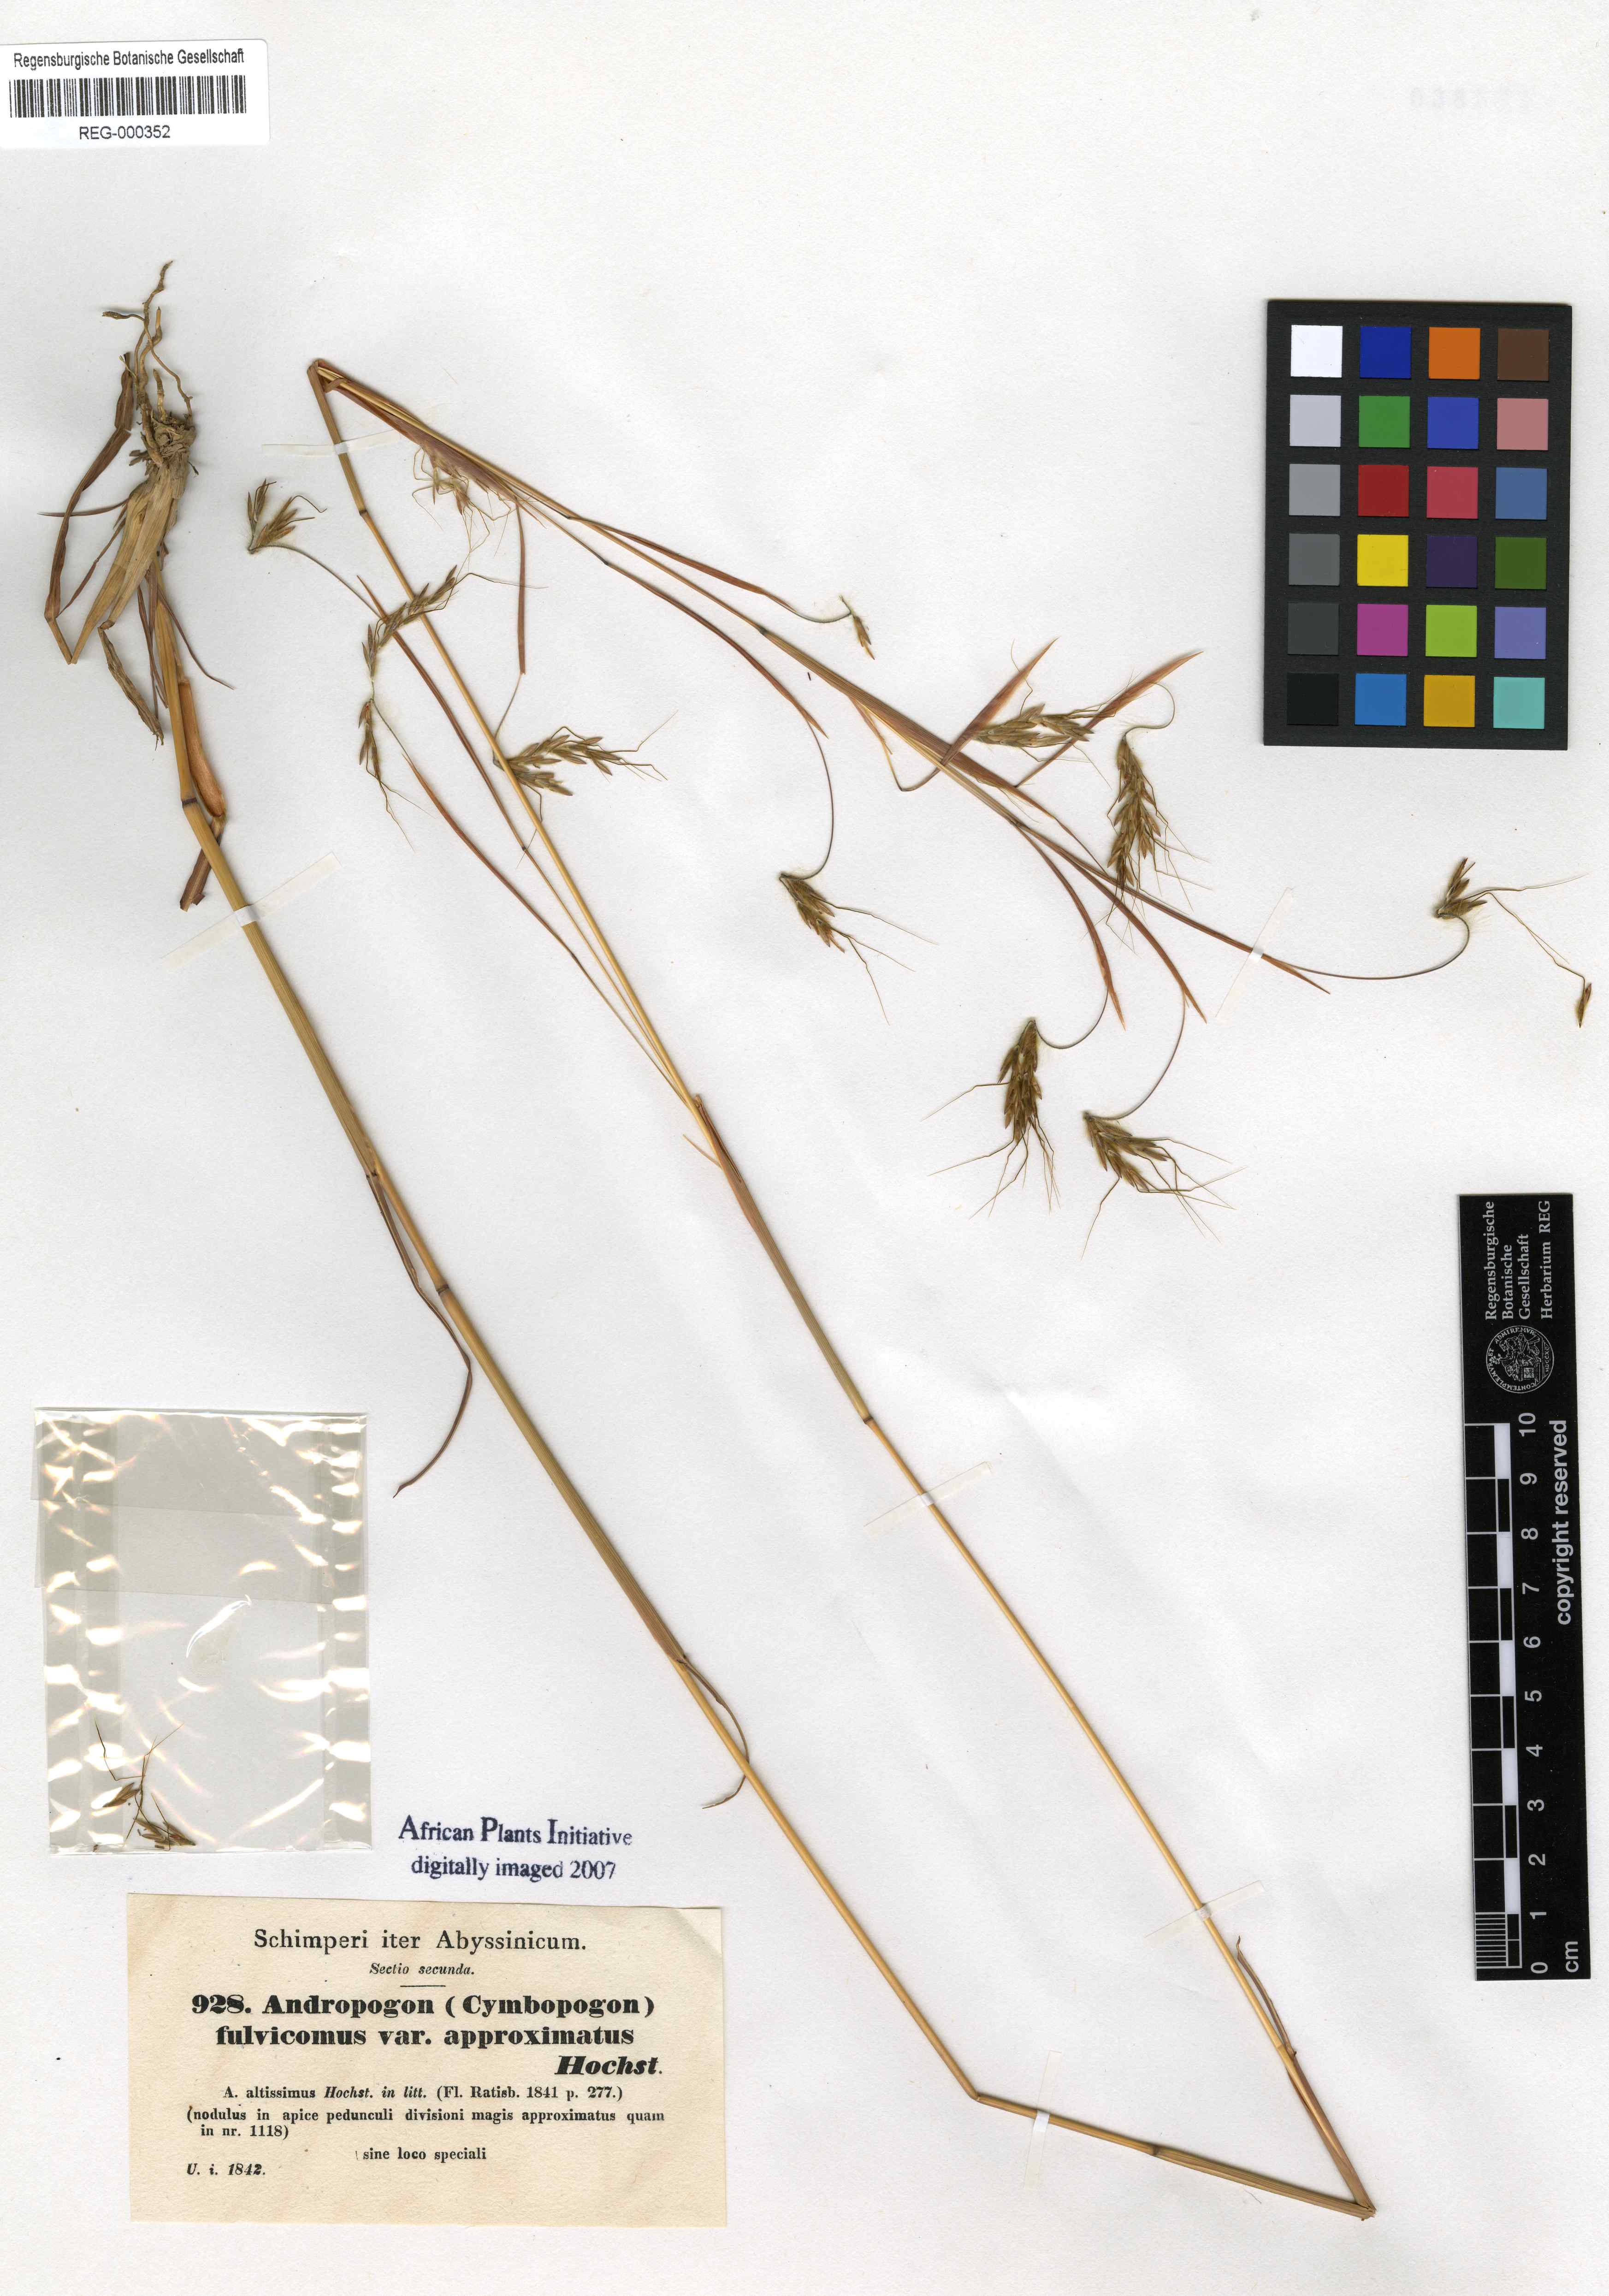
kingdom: Plantae
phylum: Tracheophyta
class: Liliopsida
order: Poales
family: Poaceae
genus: Hyparrhenia
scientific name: Hyparrhenia rufa
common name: Jaraguagrass
